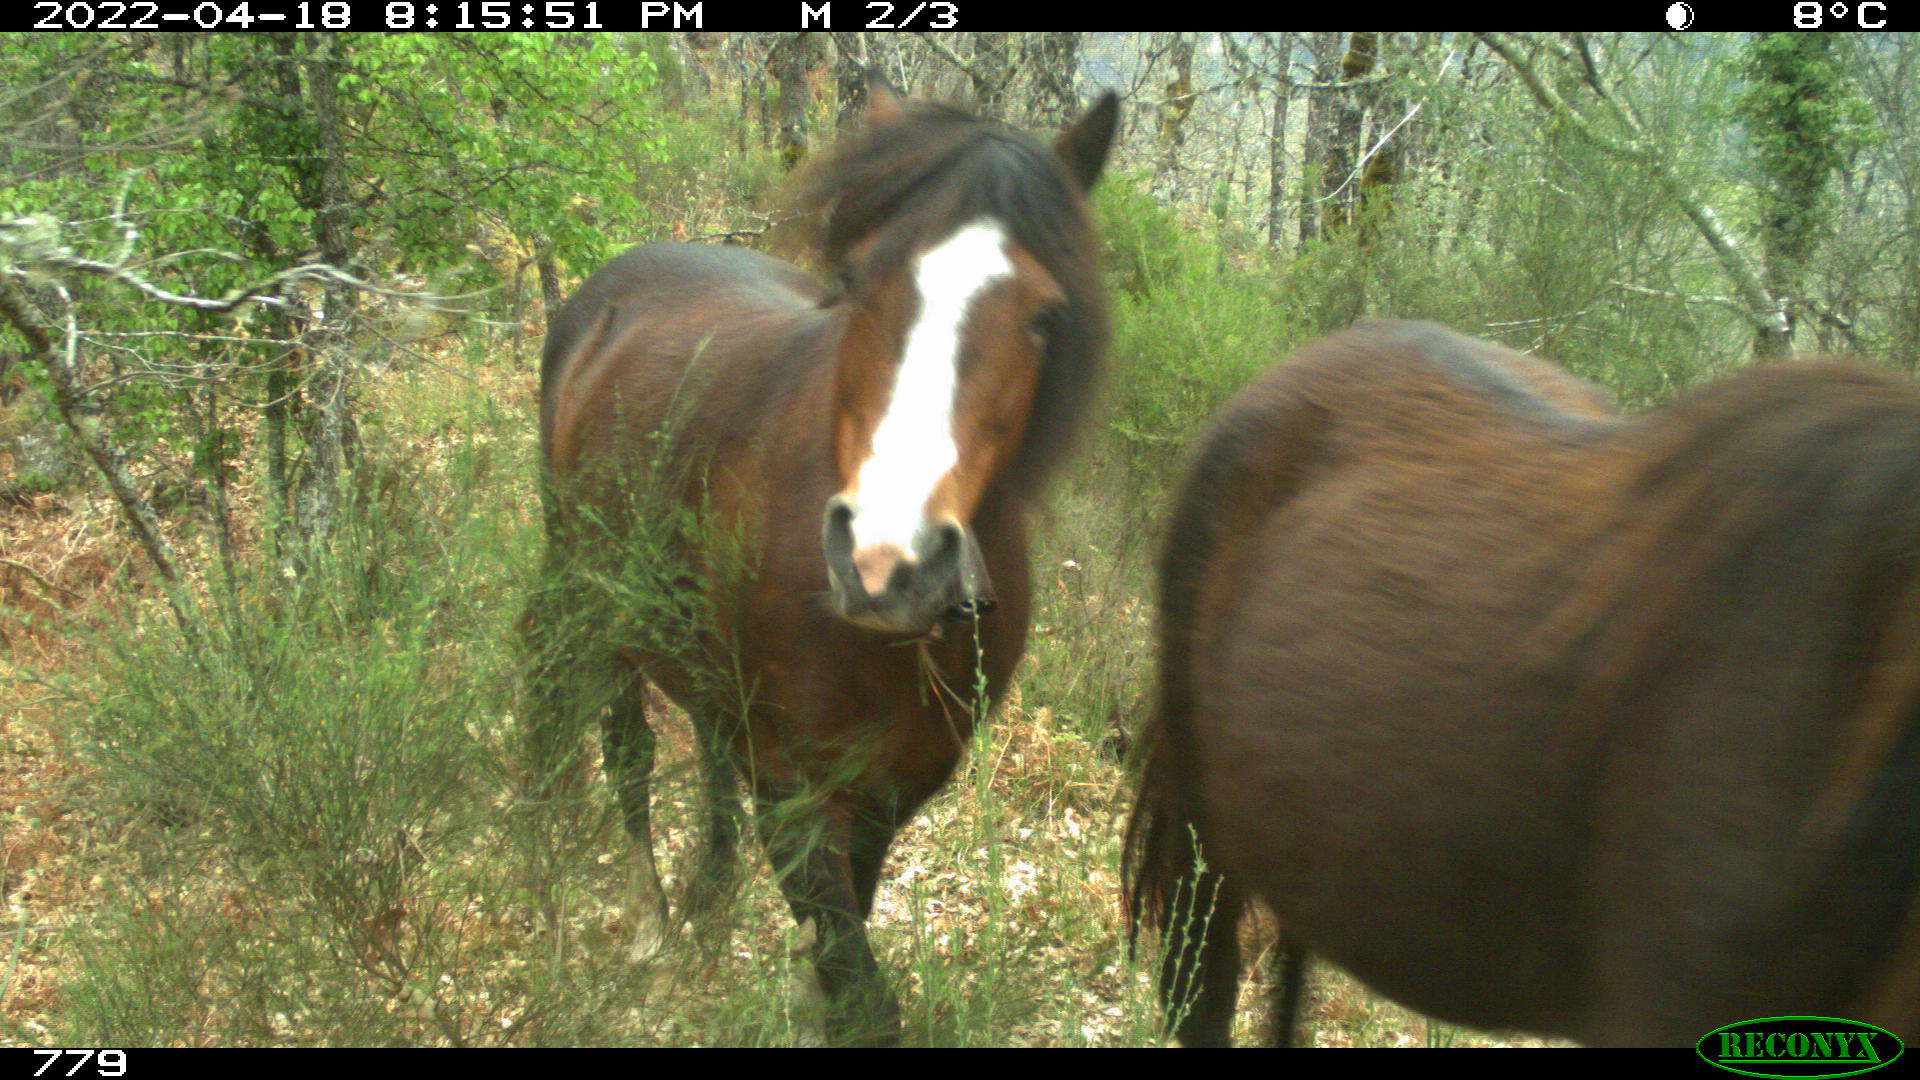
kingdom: Animalia
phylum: Chordata
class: Mammalia
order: Perissodactyla
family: Equidae
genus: Equus
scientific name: Equus caballus
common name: Horse
